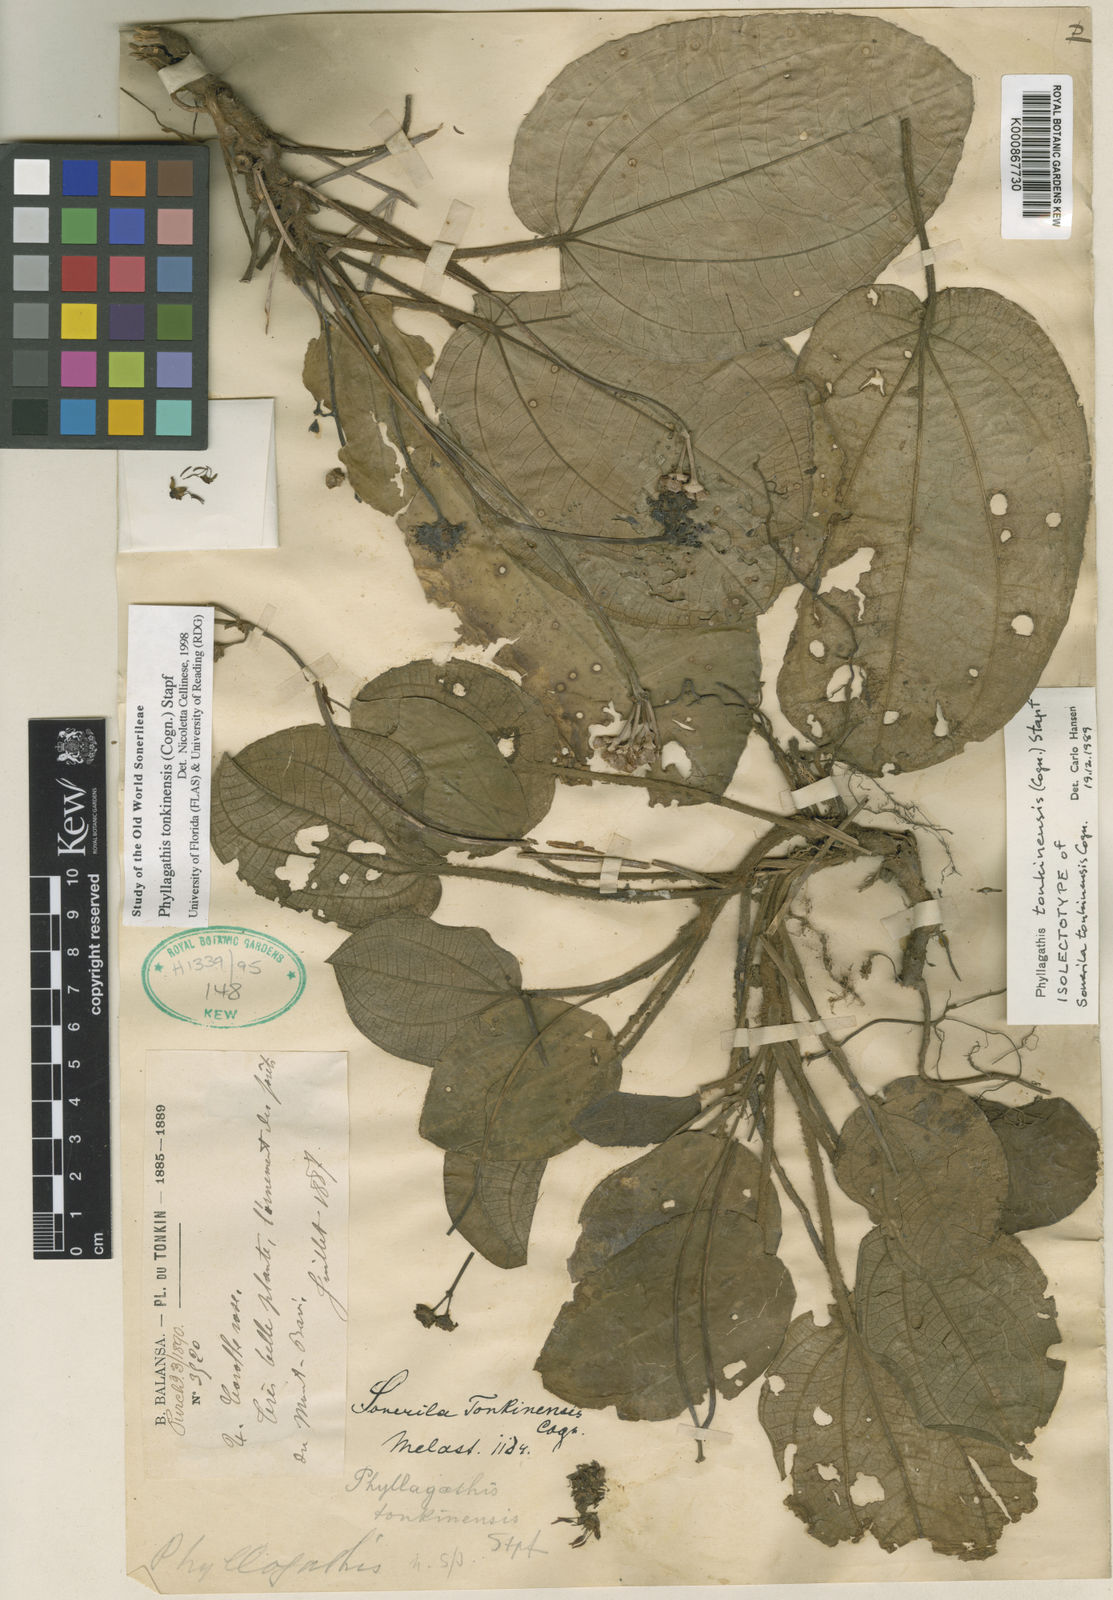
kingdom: Plantae
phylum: Tracheophyta
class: Magnoliopsida
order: Myrtales
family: Melastomataceae
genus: Phyllagathis
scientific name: Phyllagathis tonkinensis
